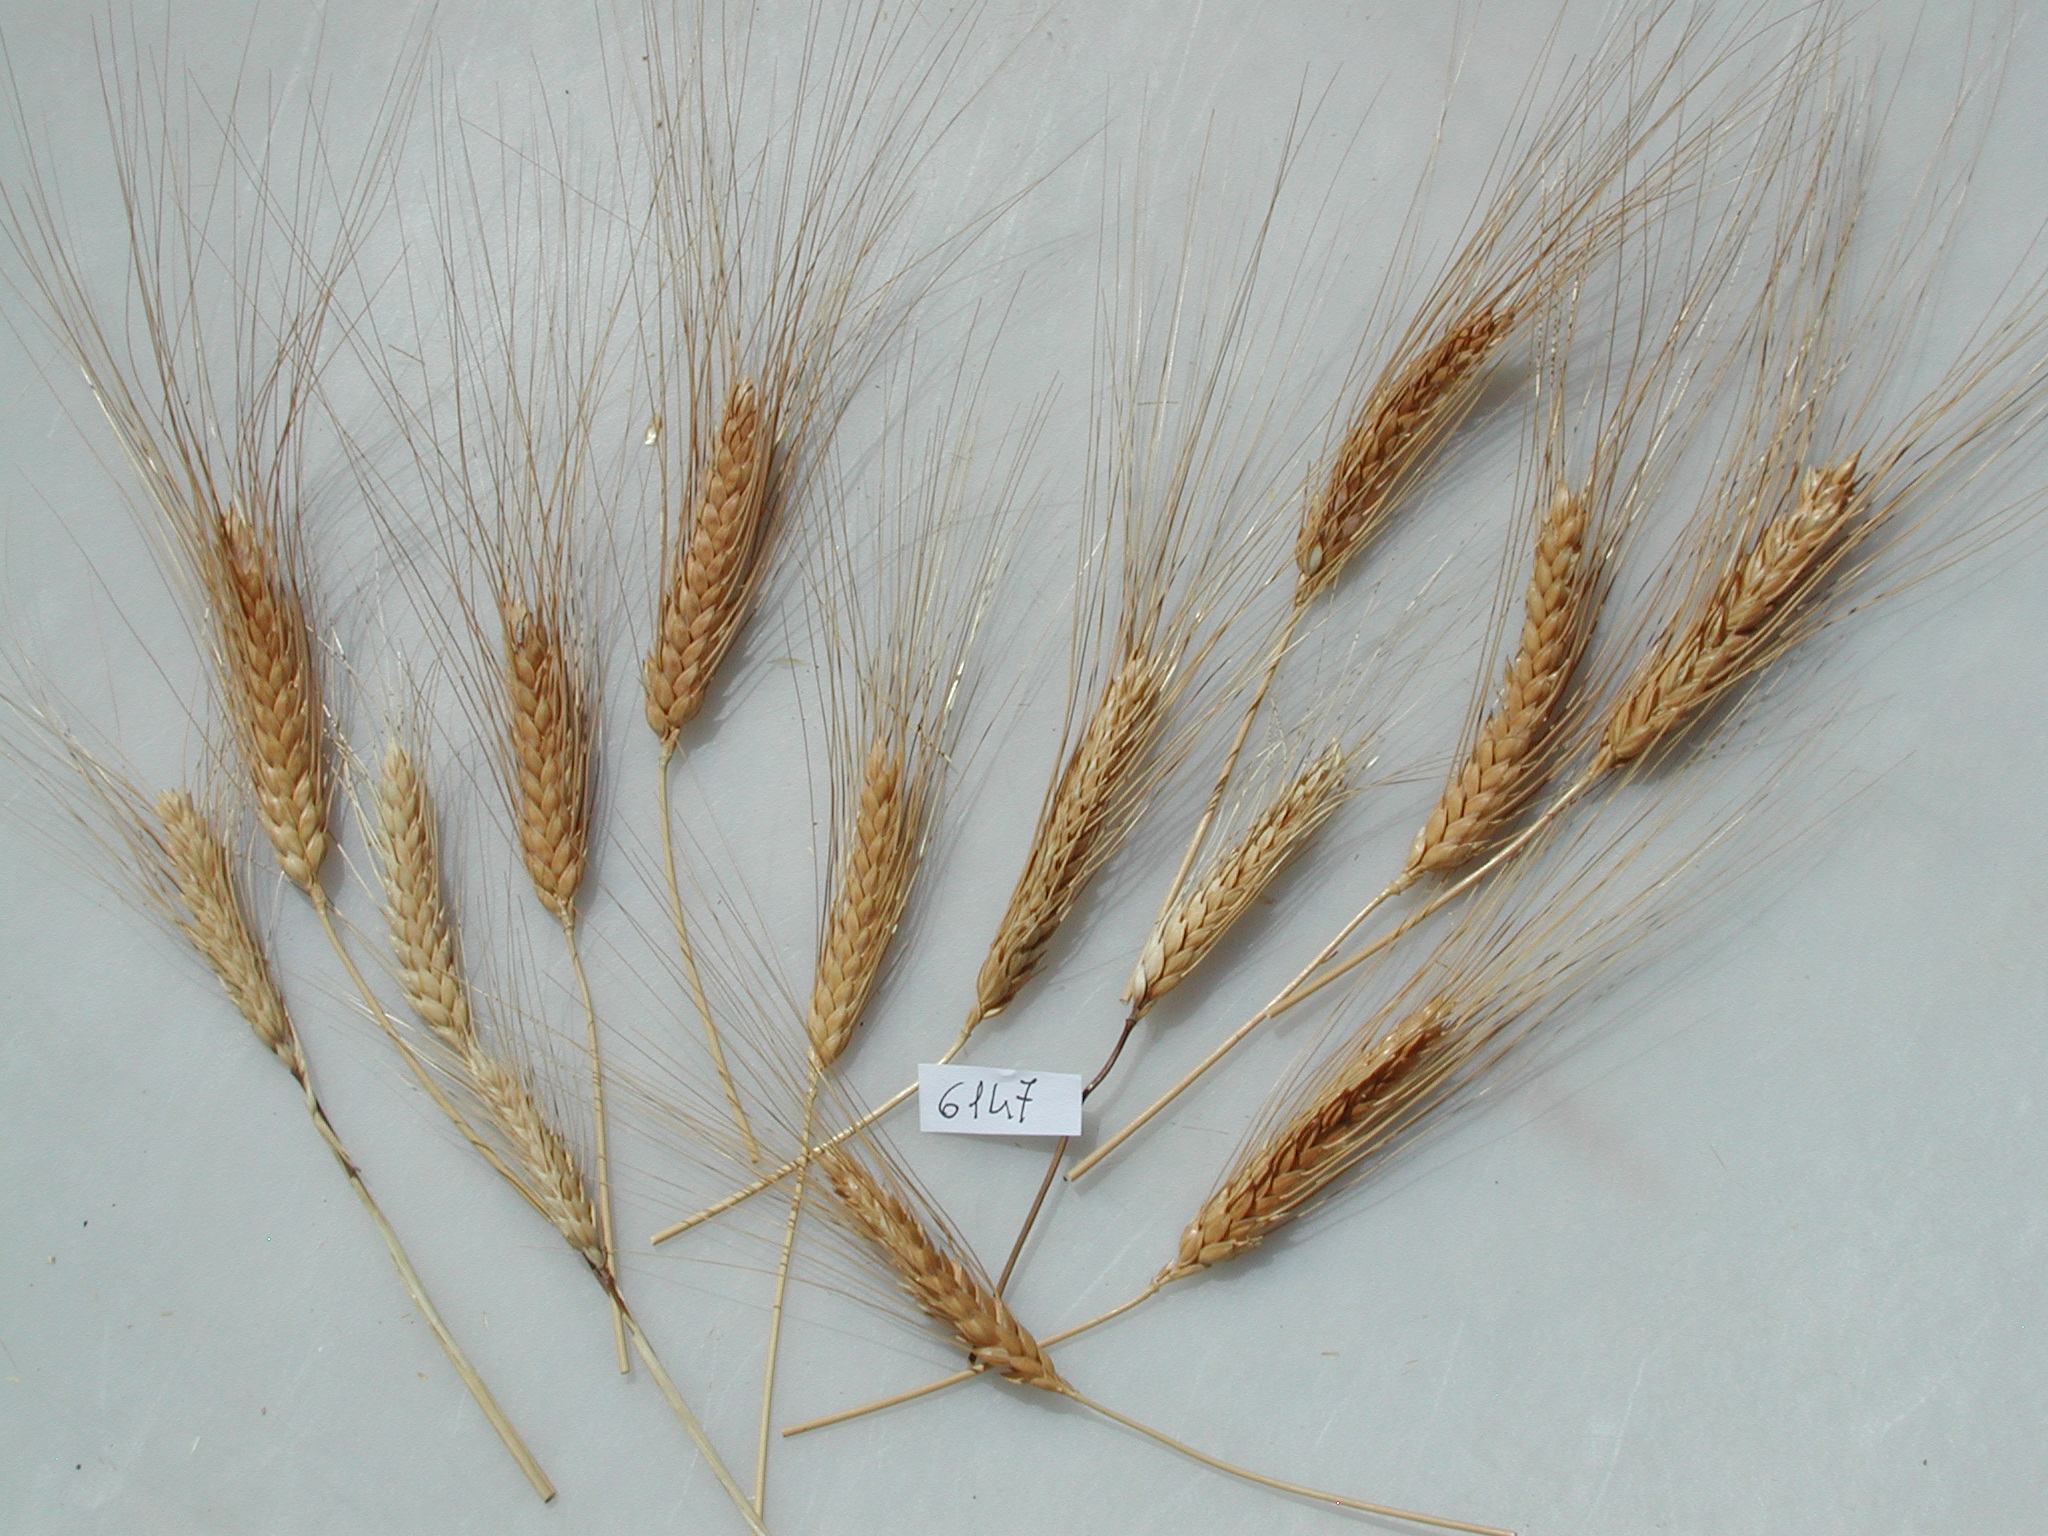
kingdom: Plantae
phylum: Tracheophyta
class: Liliopsida
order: Poales
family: Poaceae
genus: Triticum
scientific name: Triticum turgidum
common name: Wheat
